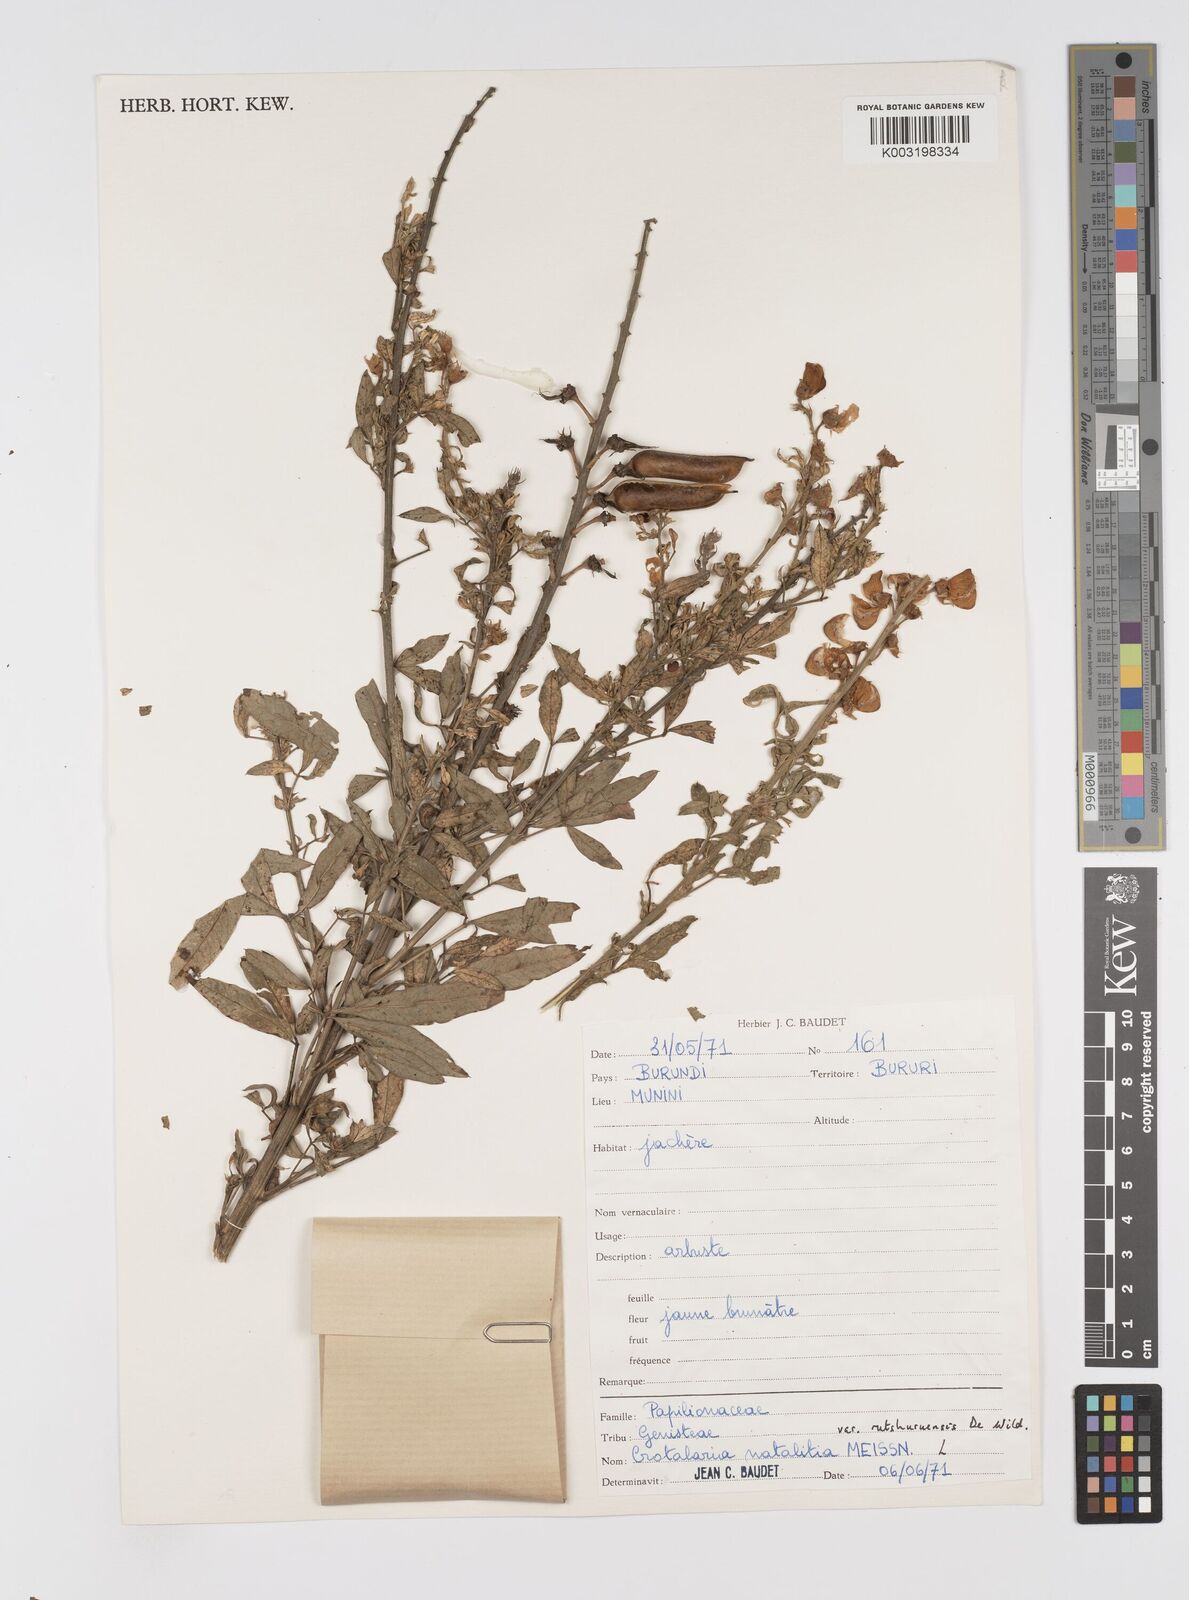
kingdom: Plantae
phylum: Tracheophyta
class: Magnoliopsida
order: Fabales
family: Fabaceae
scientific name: Fabaceae
